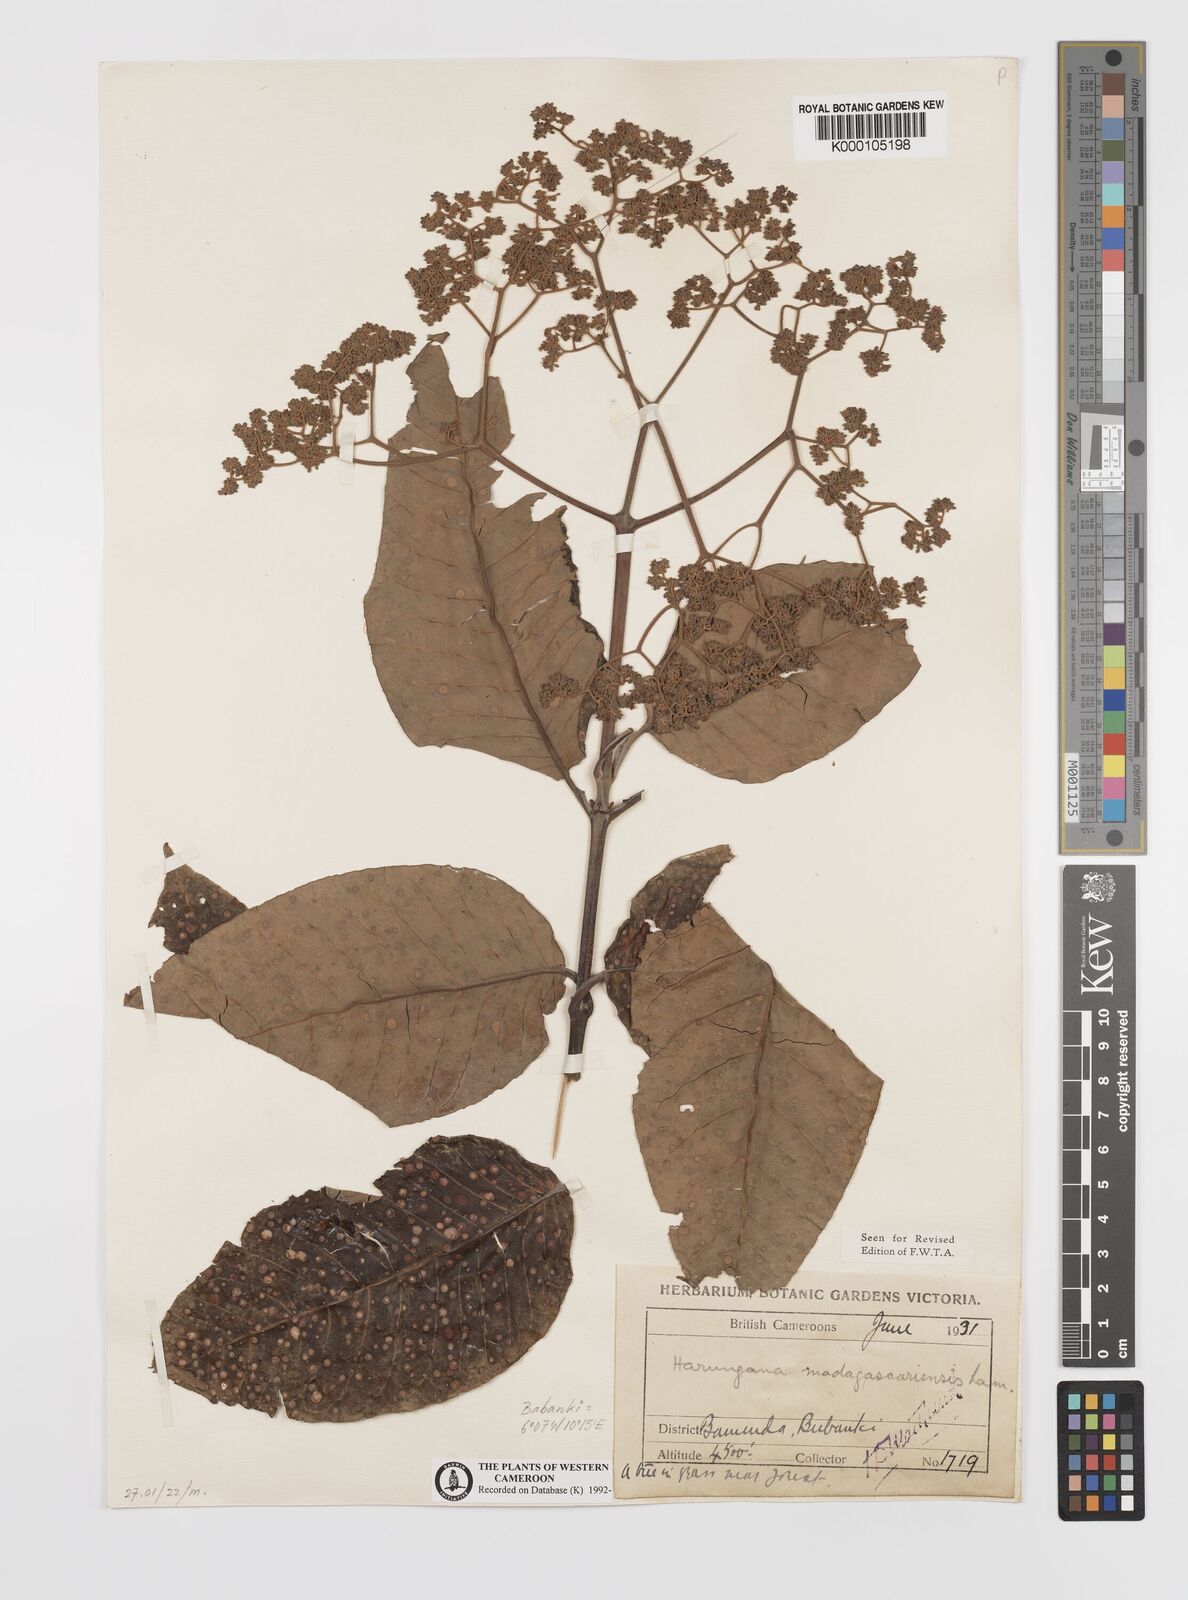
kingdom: Plantae
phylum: Tracheophyta
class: Magnoliopsida
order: Malpighiales
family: Hypericaceae
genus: Harungana
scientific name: Harungana madagascariensis
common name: Orange milktree
